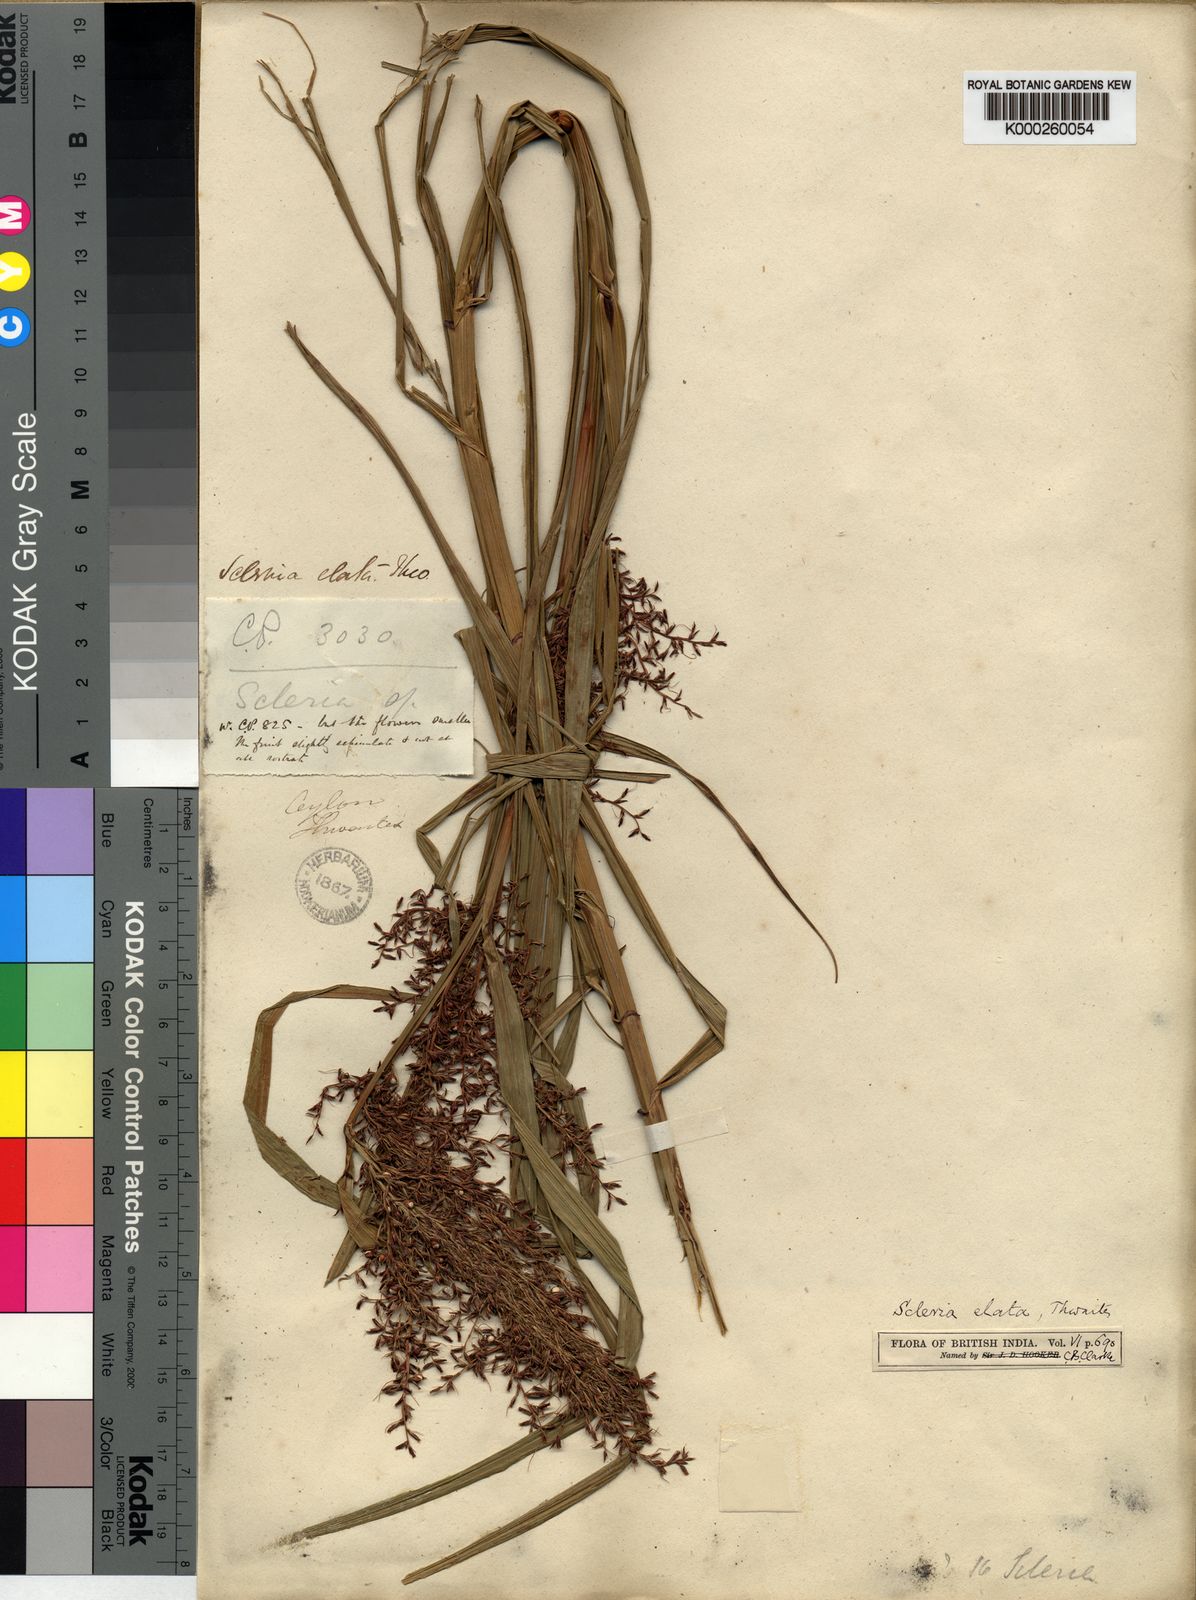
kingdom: Plantae
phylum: Tracheophyta
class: Liliopsida
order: Poales
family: Cyperaceae
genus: Scleria
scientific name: Scleria terrestris
